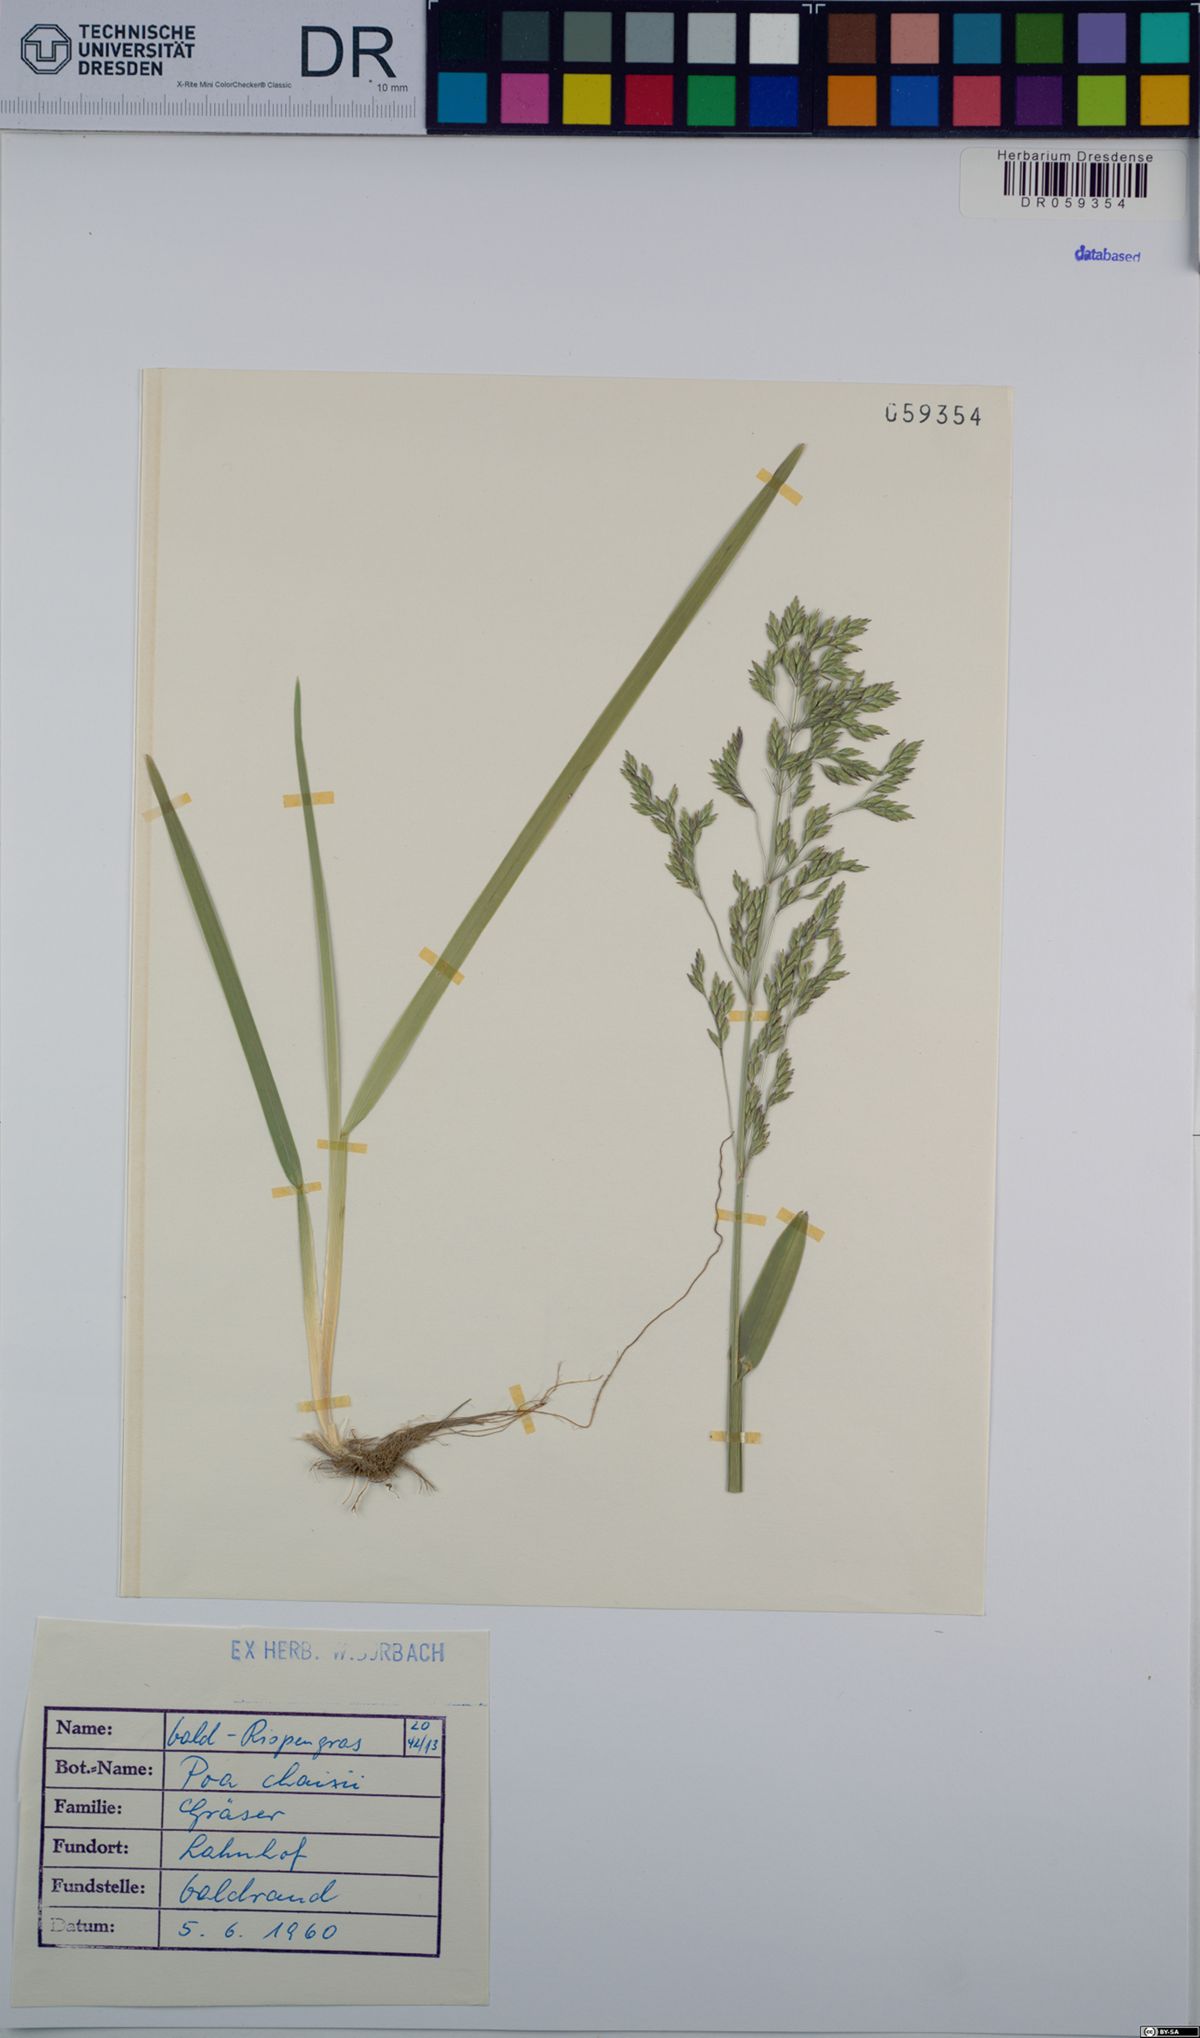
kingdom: Plantae
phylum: Tracheophyta
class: Liliopsida
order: Poales
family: Poaceae
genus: Poa
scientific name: Poa chaixii
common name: Broad-leaved meadow-grass
